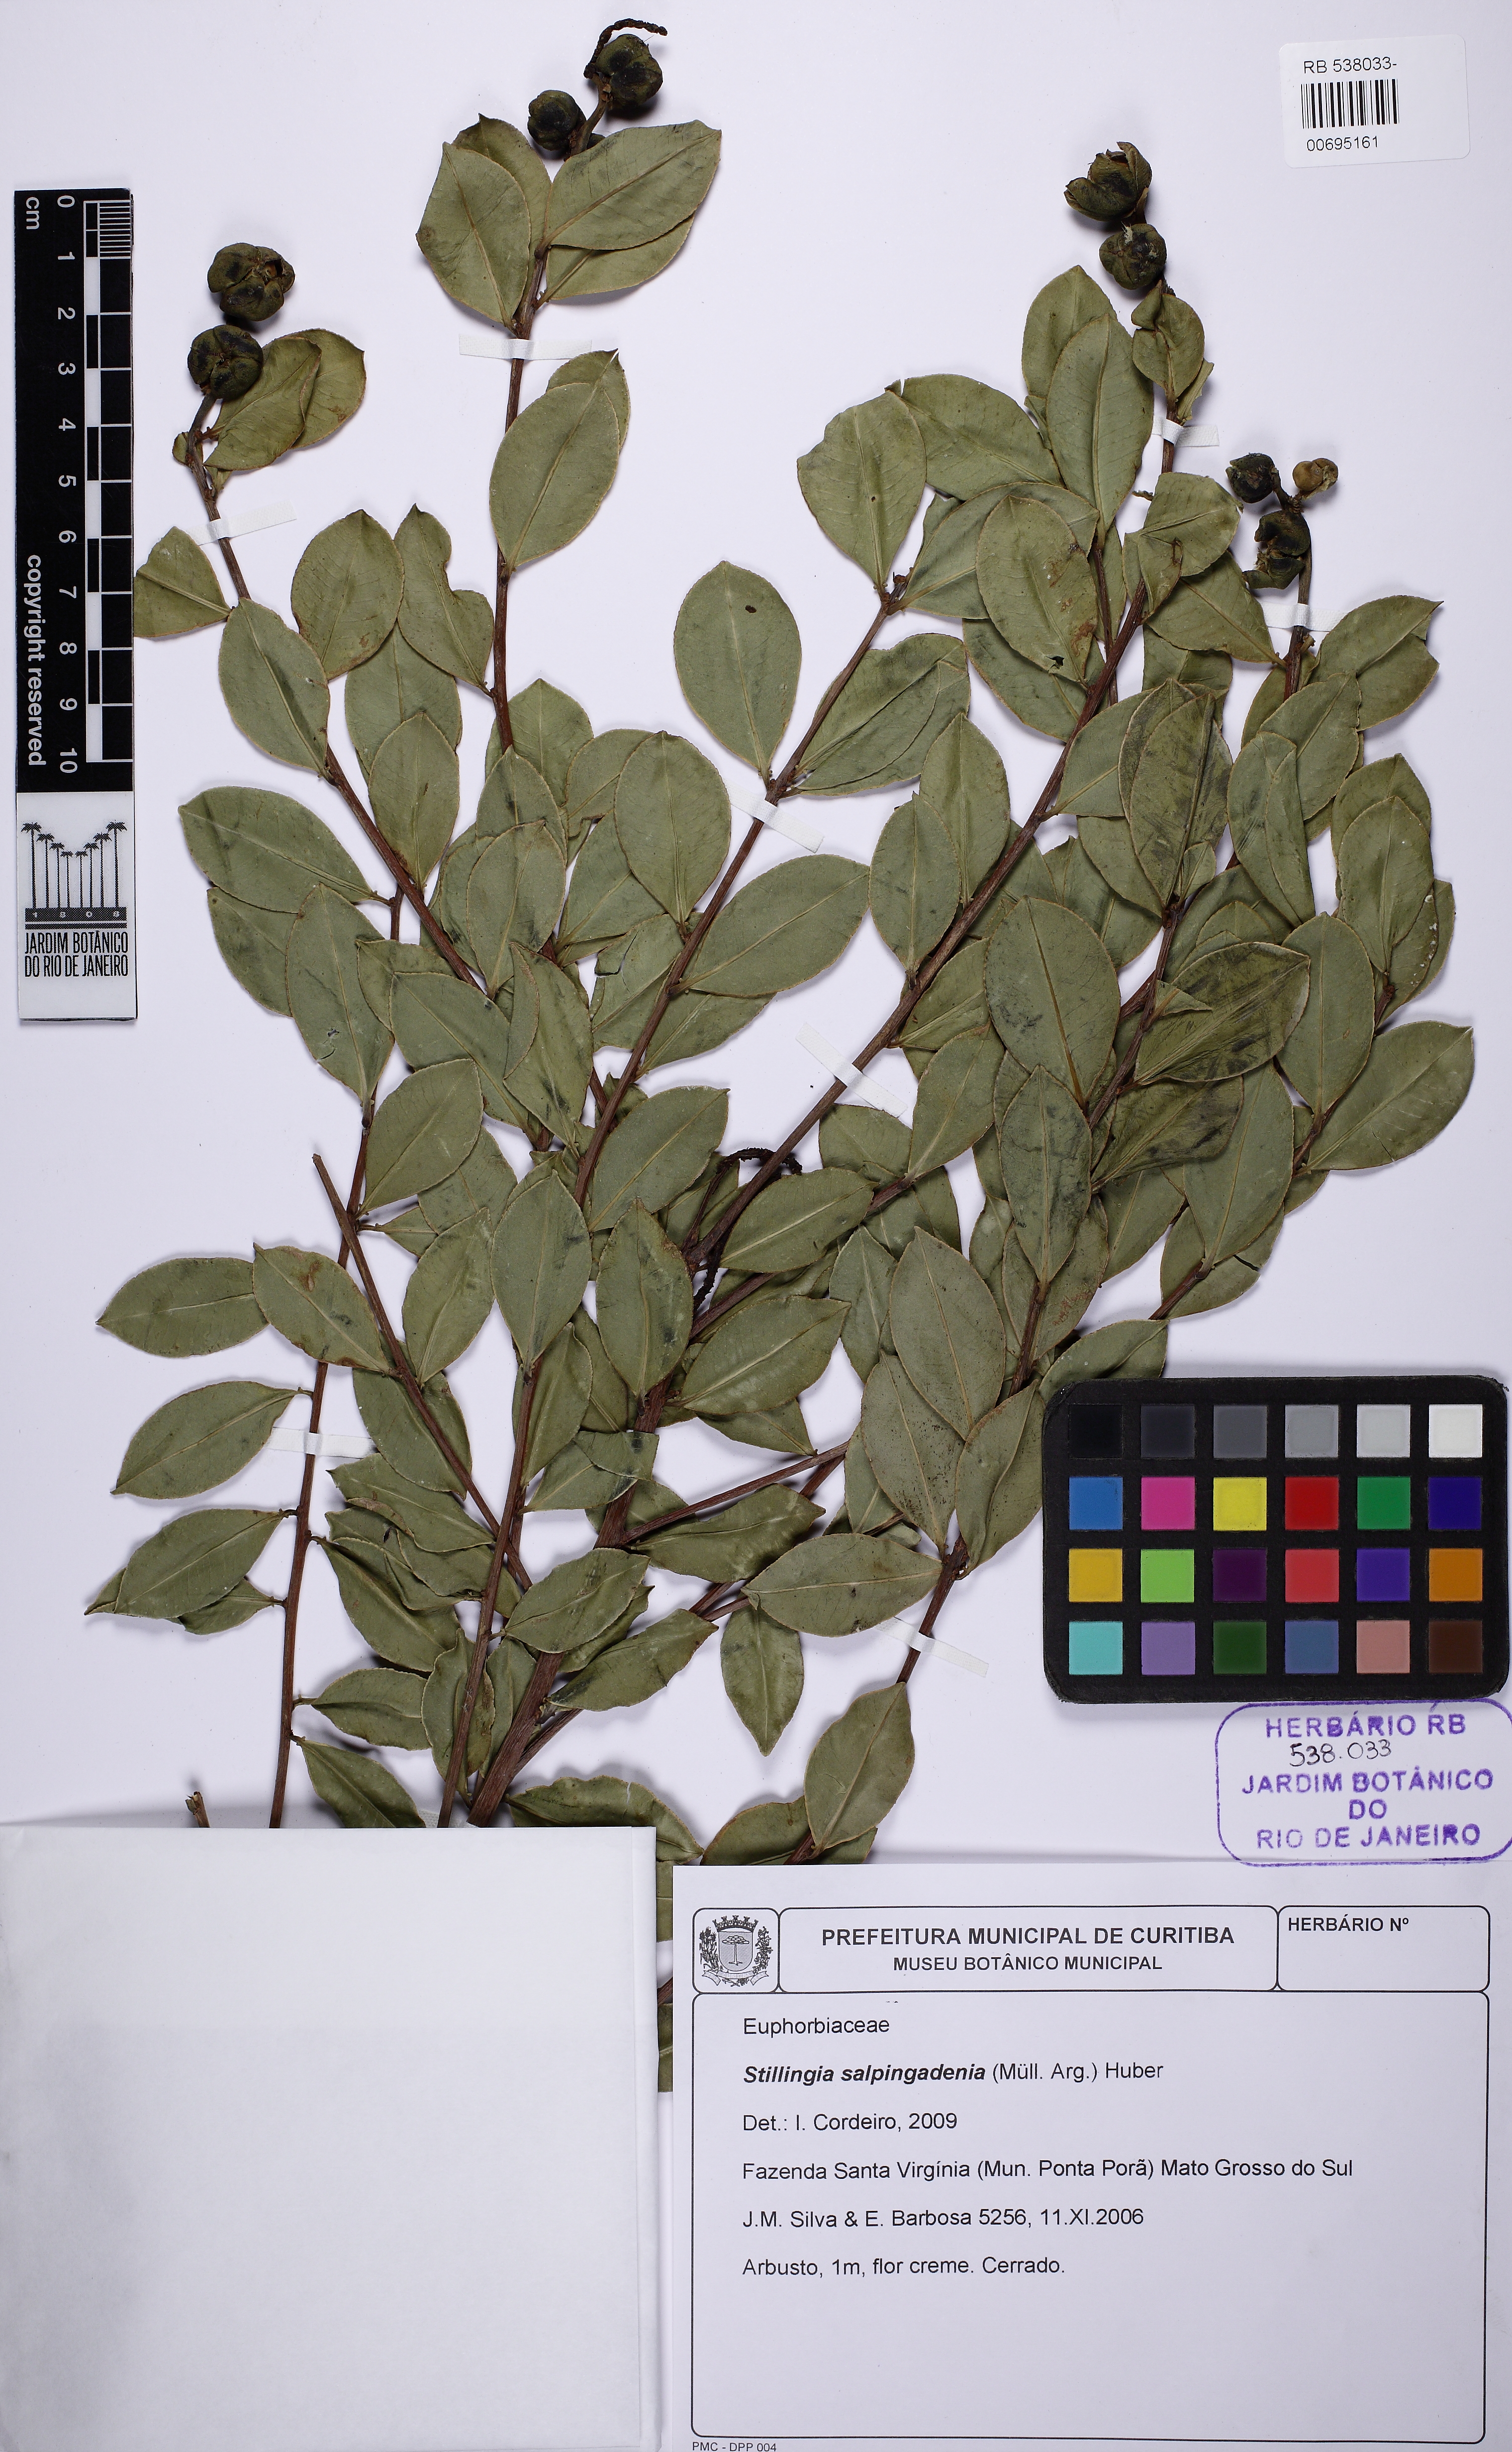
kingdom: Plantae
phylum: Tracheophyta
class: Magnoliopsida
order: Malpighiales
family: Euphorbiaceae
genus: Stillingia
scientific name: Stillingia salpingadenia
